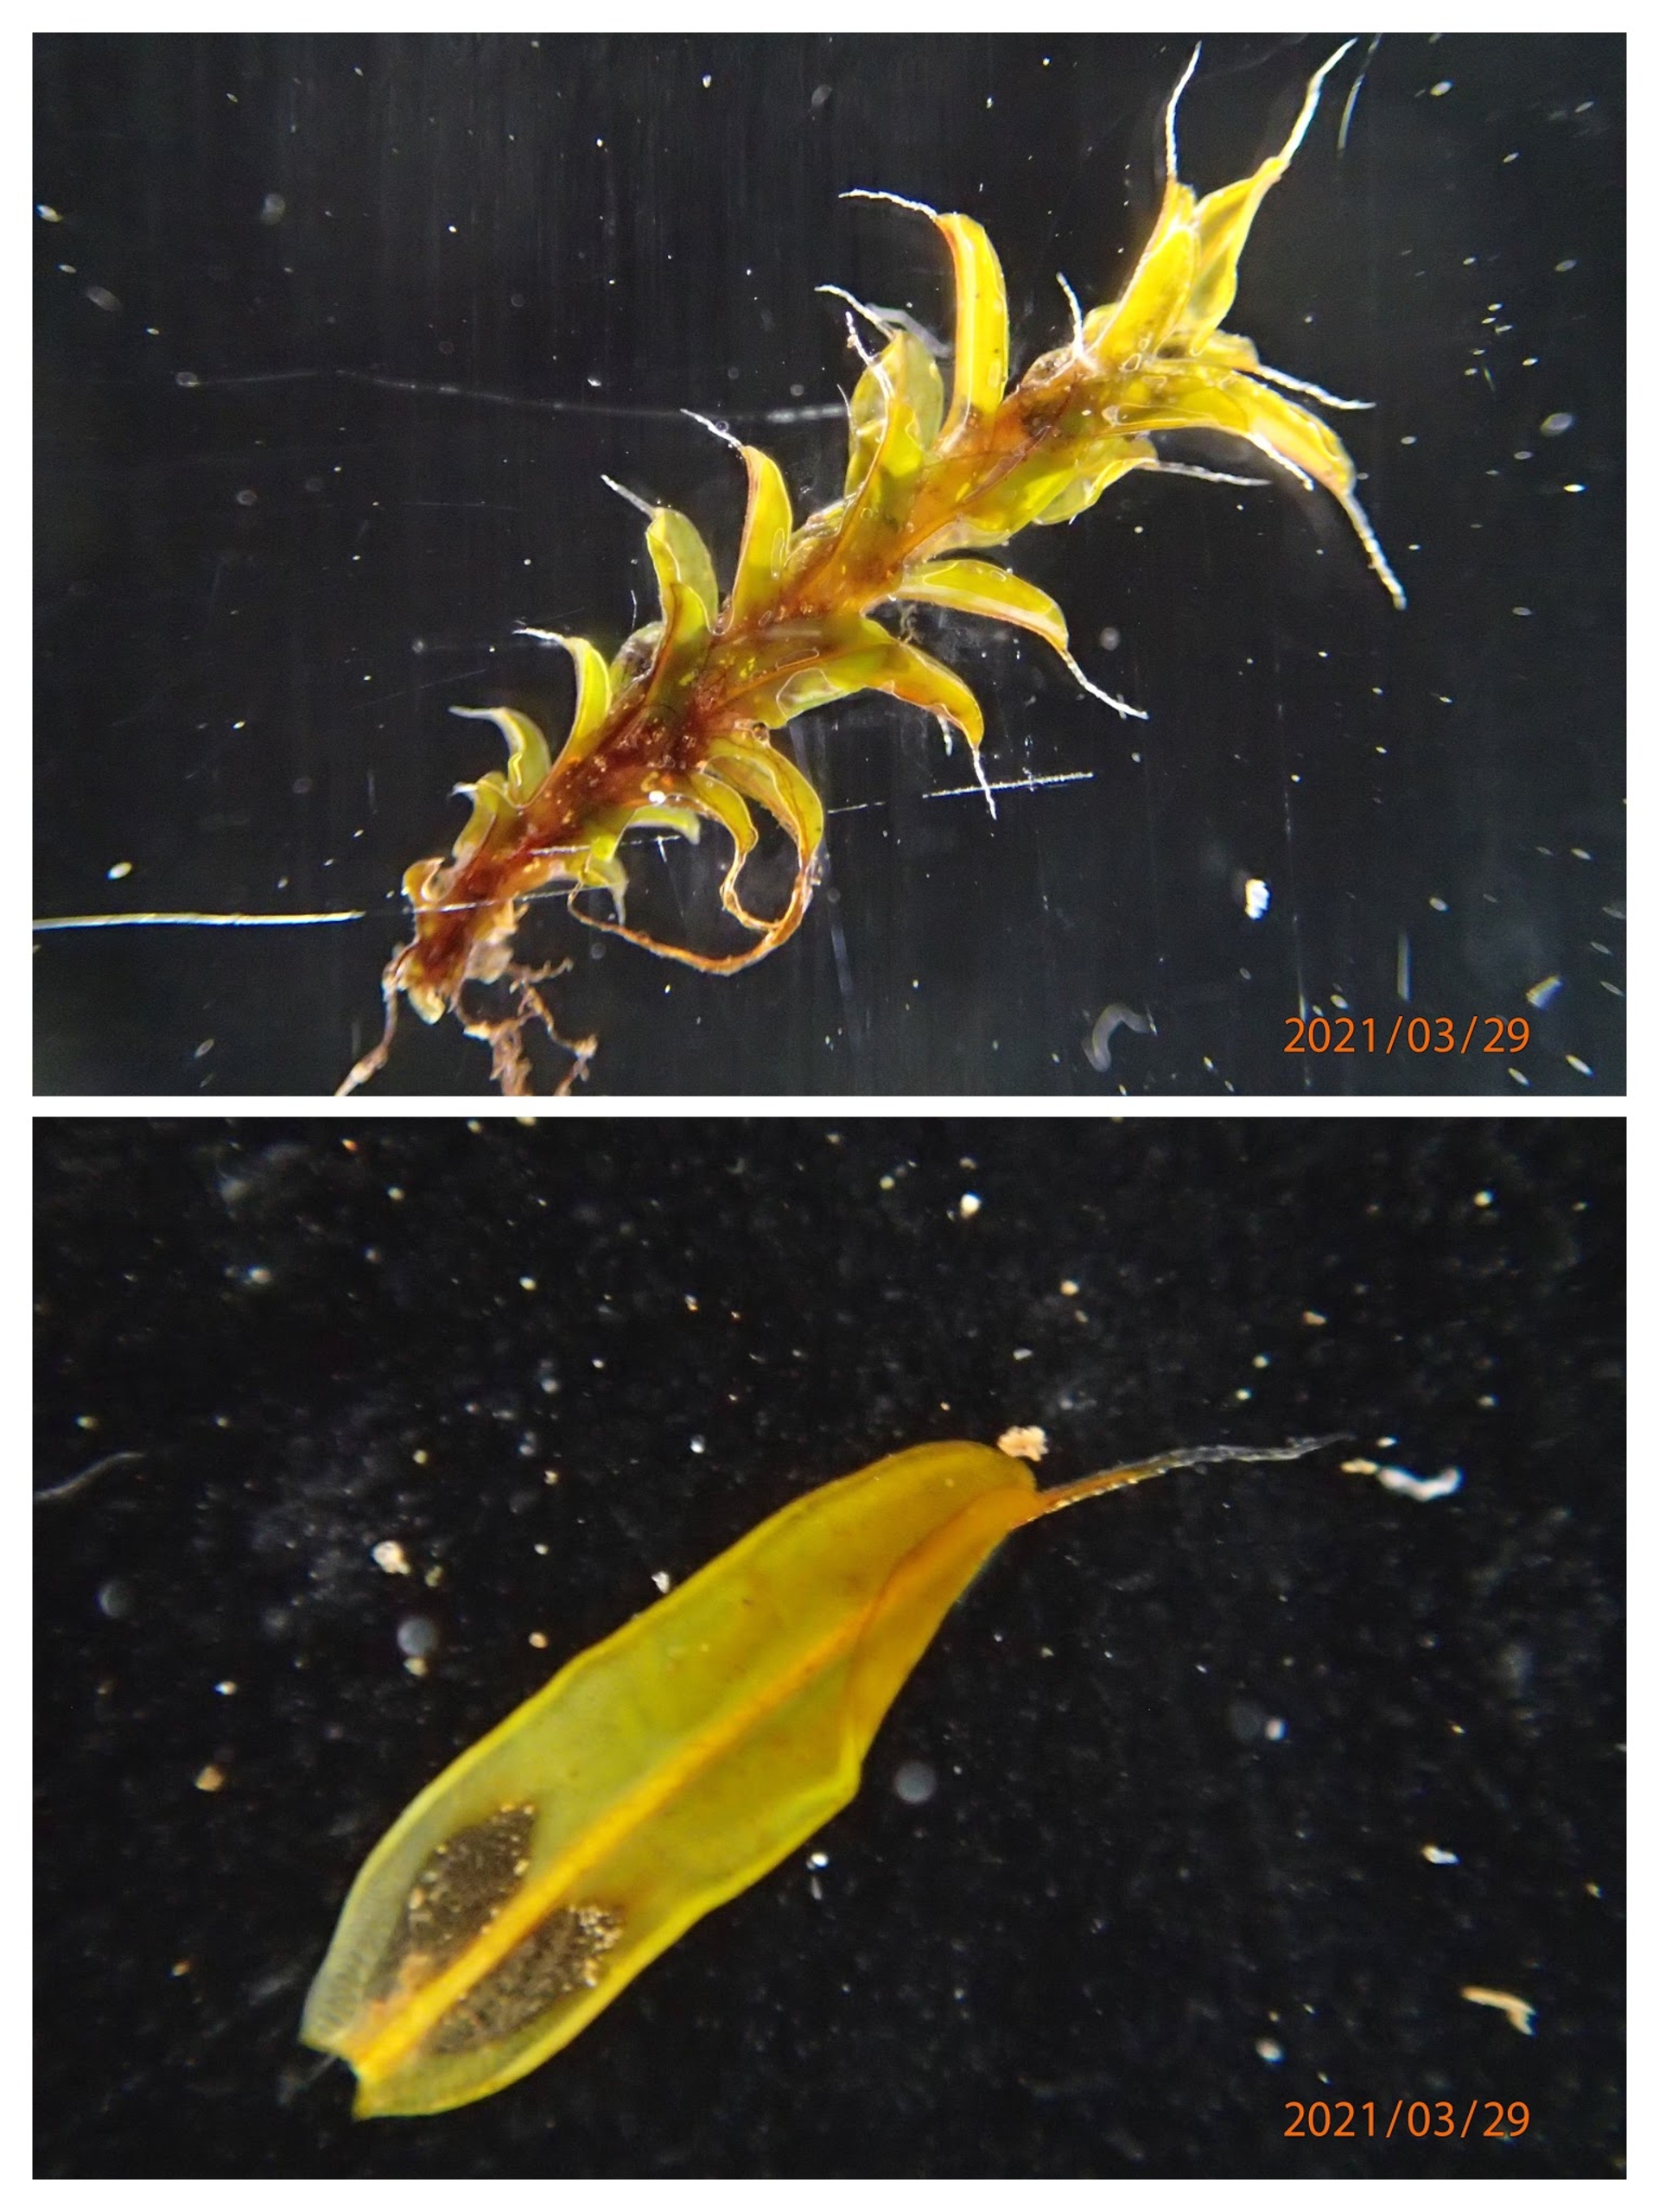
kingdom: Plantae
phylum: Bryophyta
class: Bryopsida
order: Pottiales
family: Pottiaceae
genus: Syntrichia
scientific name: Syntrichia ruralis
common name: Tag-hårstjerne
